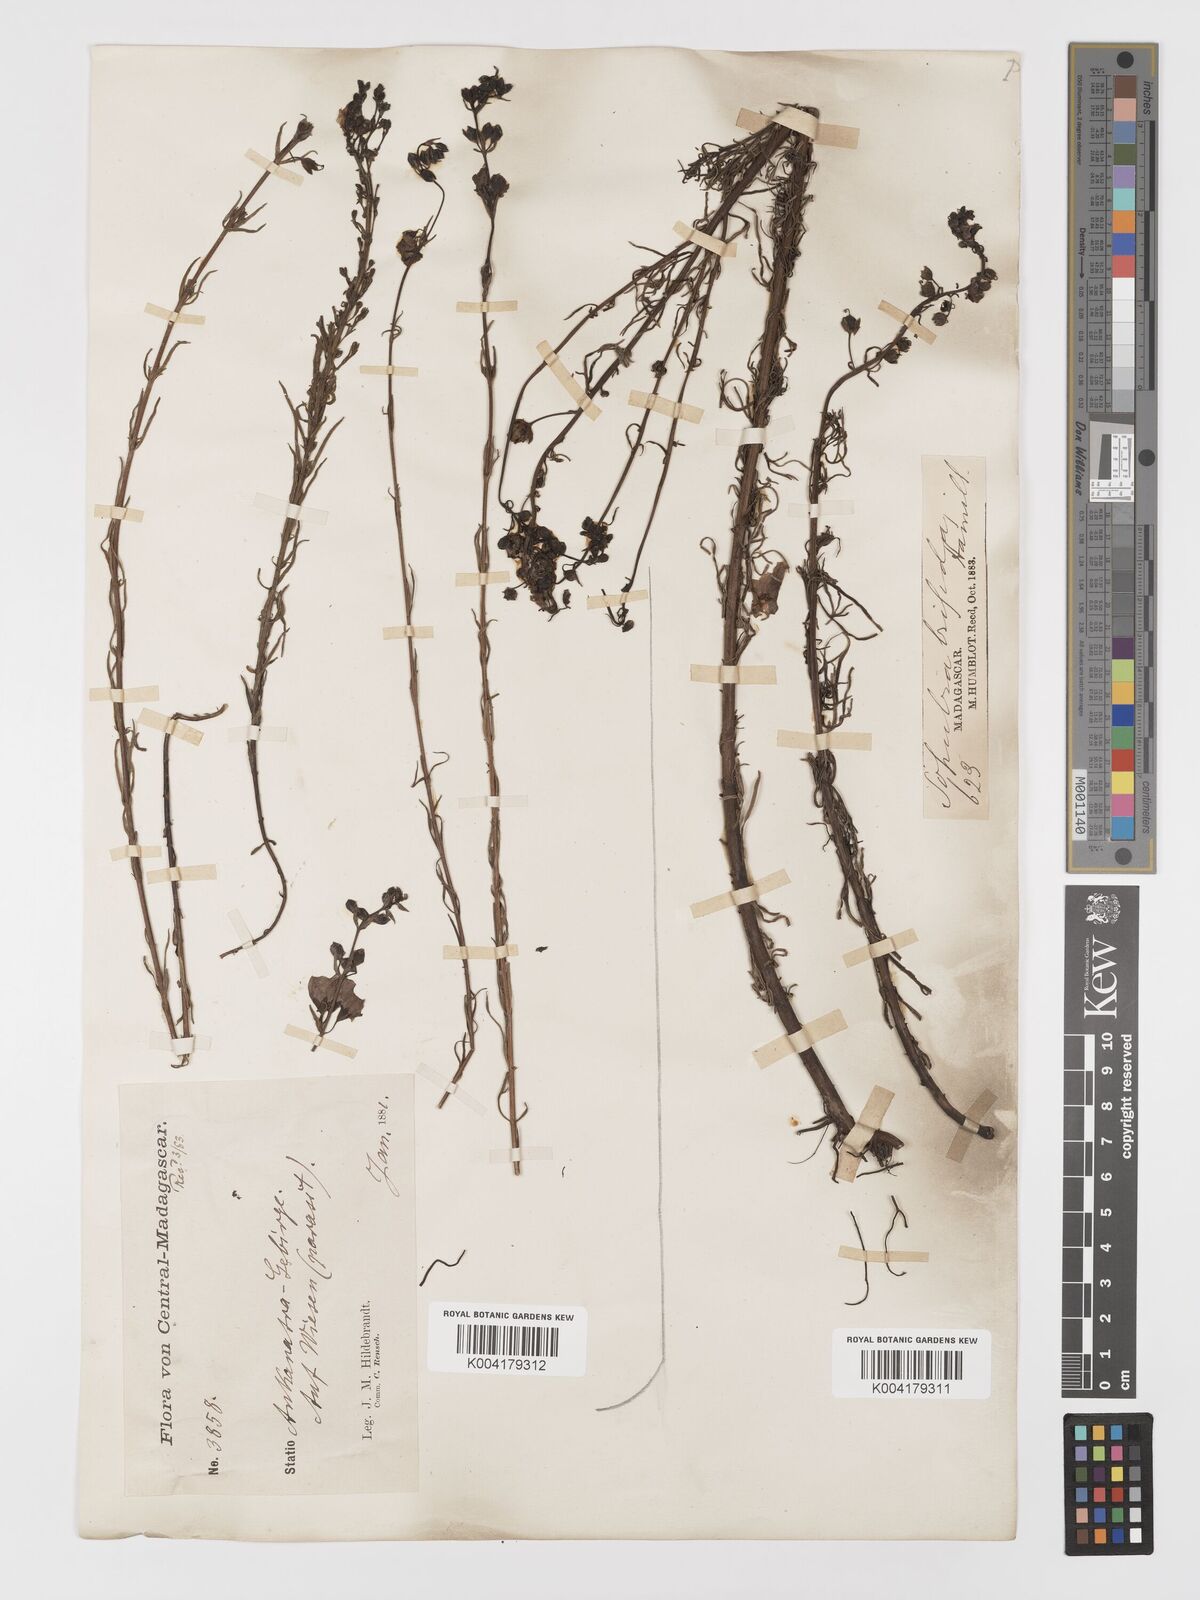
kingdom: Plantae
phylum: Tracheophyta
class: Magnoliopsida
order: Lamiales
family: Orobanchaceae
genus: Sopubia
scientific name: Sopubia trifida
